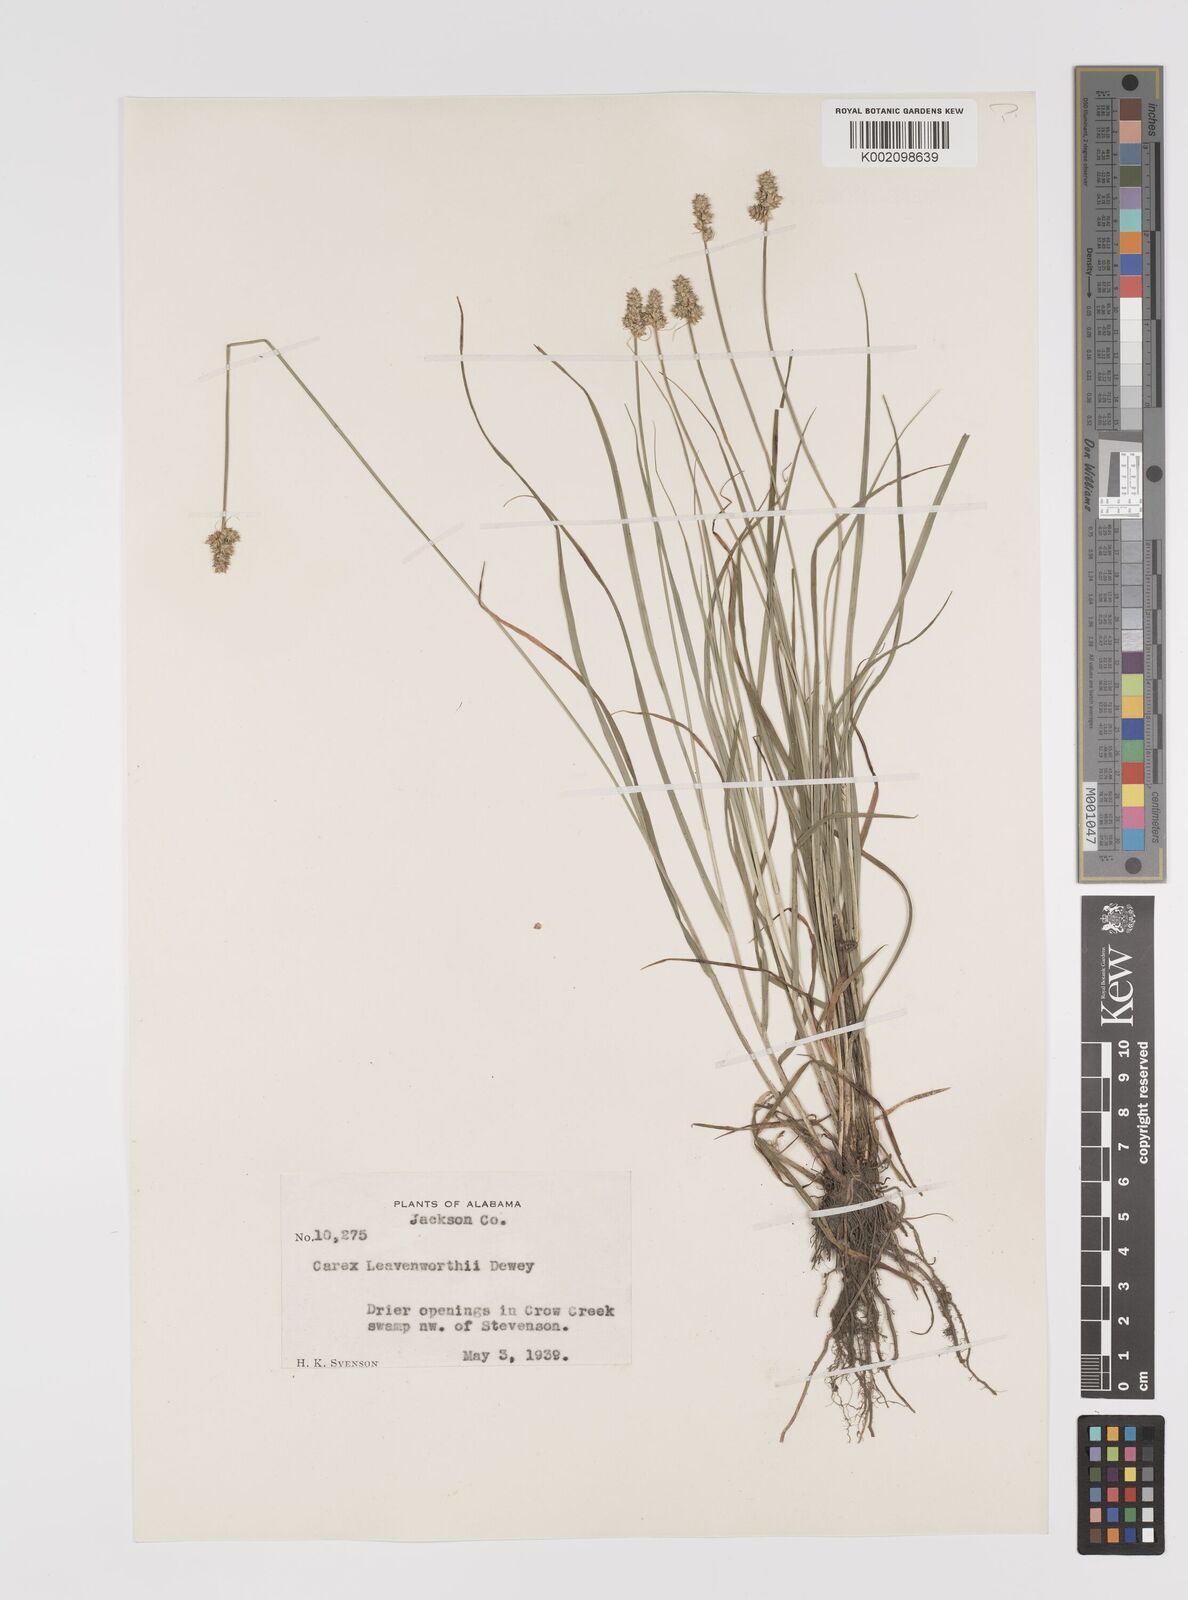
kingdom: Plantae
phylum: Tracheophyta
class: Liliopsida
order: Poales
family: Cyperaceae
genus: Carex
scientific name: Carex leavenworthii
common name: Leavenworth's bracted sedge
